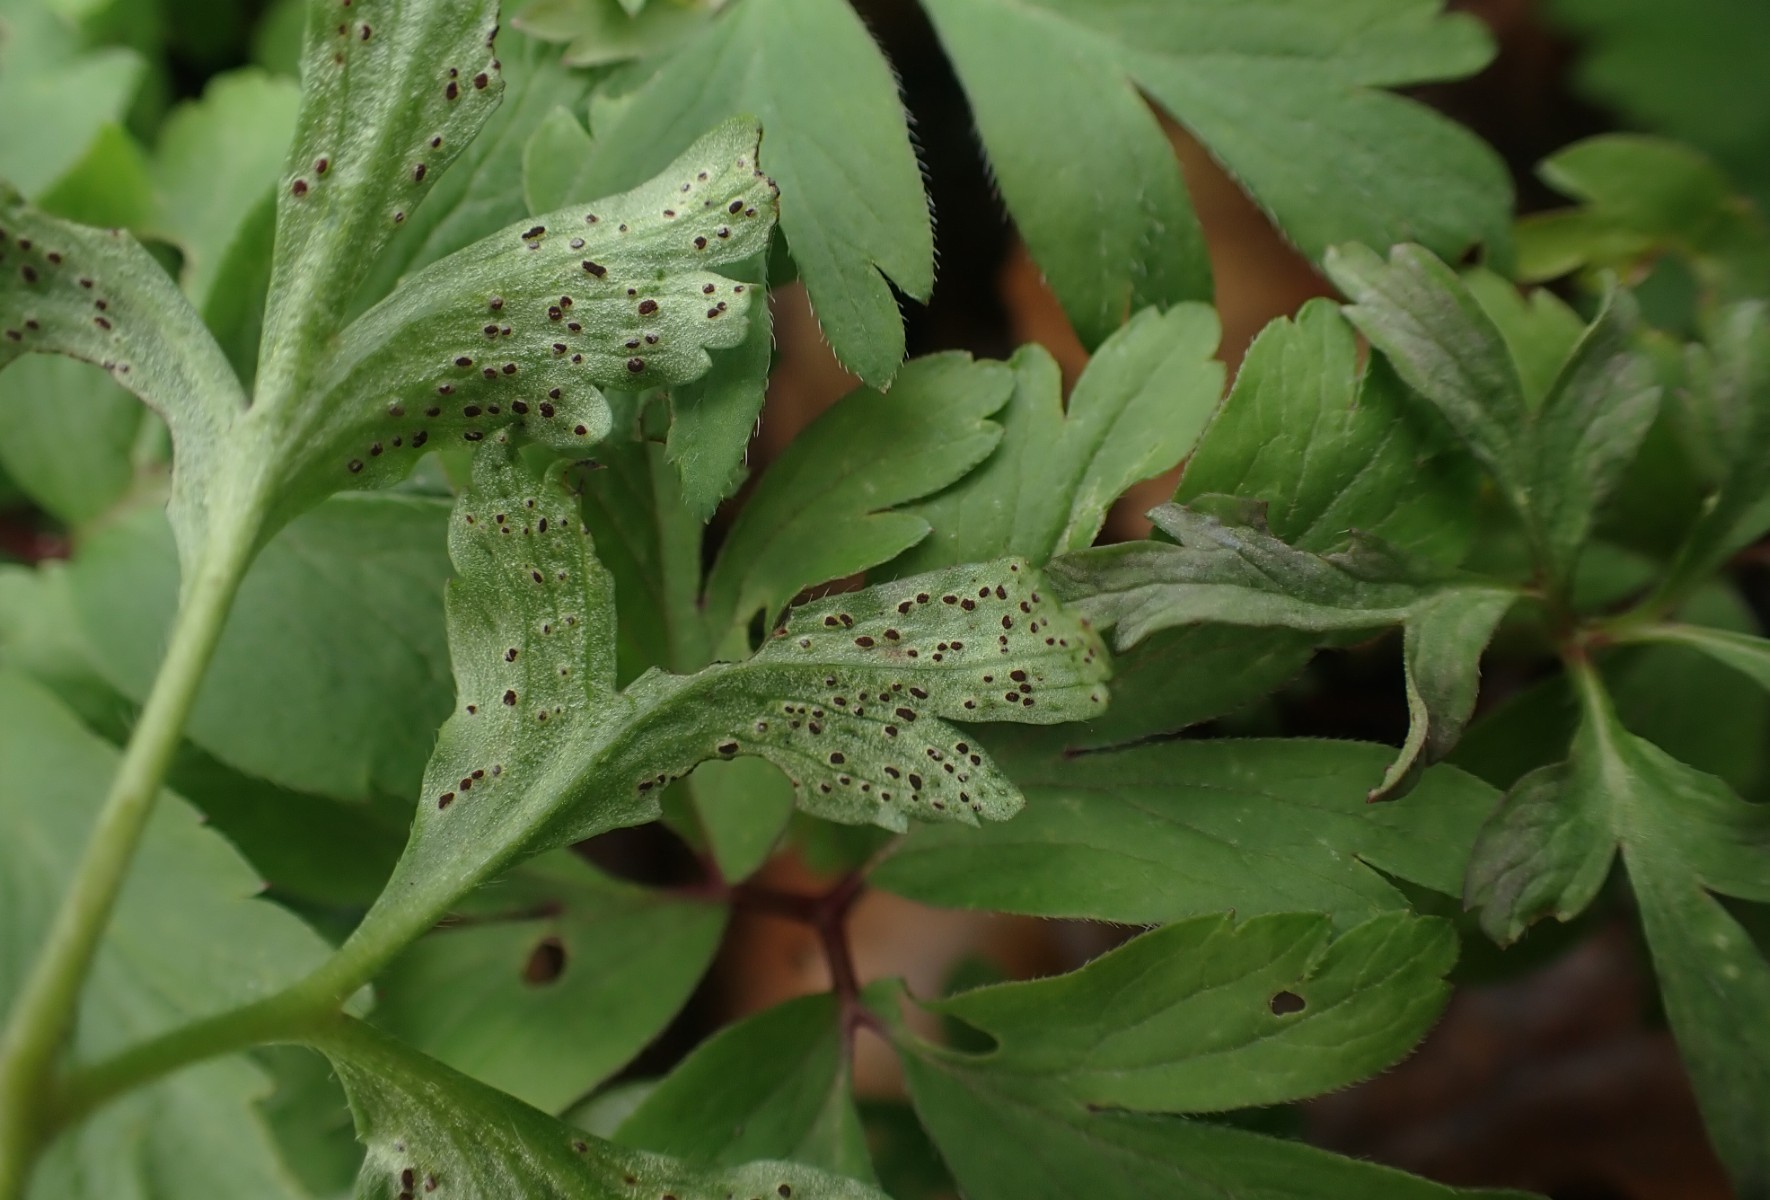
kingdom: Fungi
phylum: Basidiomycota
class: Pucciniomycetes
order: Pucciniales
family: Tranzscheliaceae
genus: Tranzschelia
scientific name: Tranzschelia anemones
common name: anemone-knæksporerust
